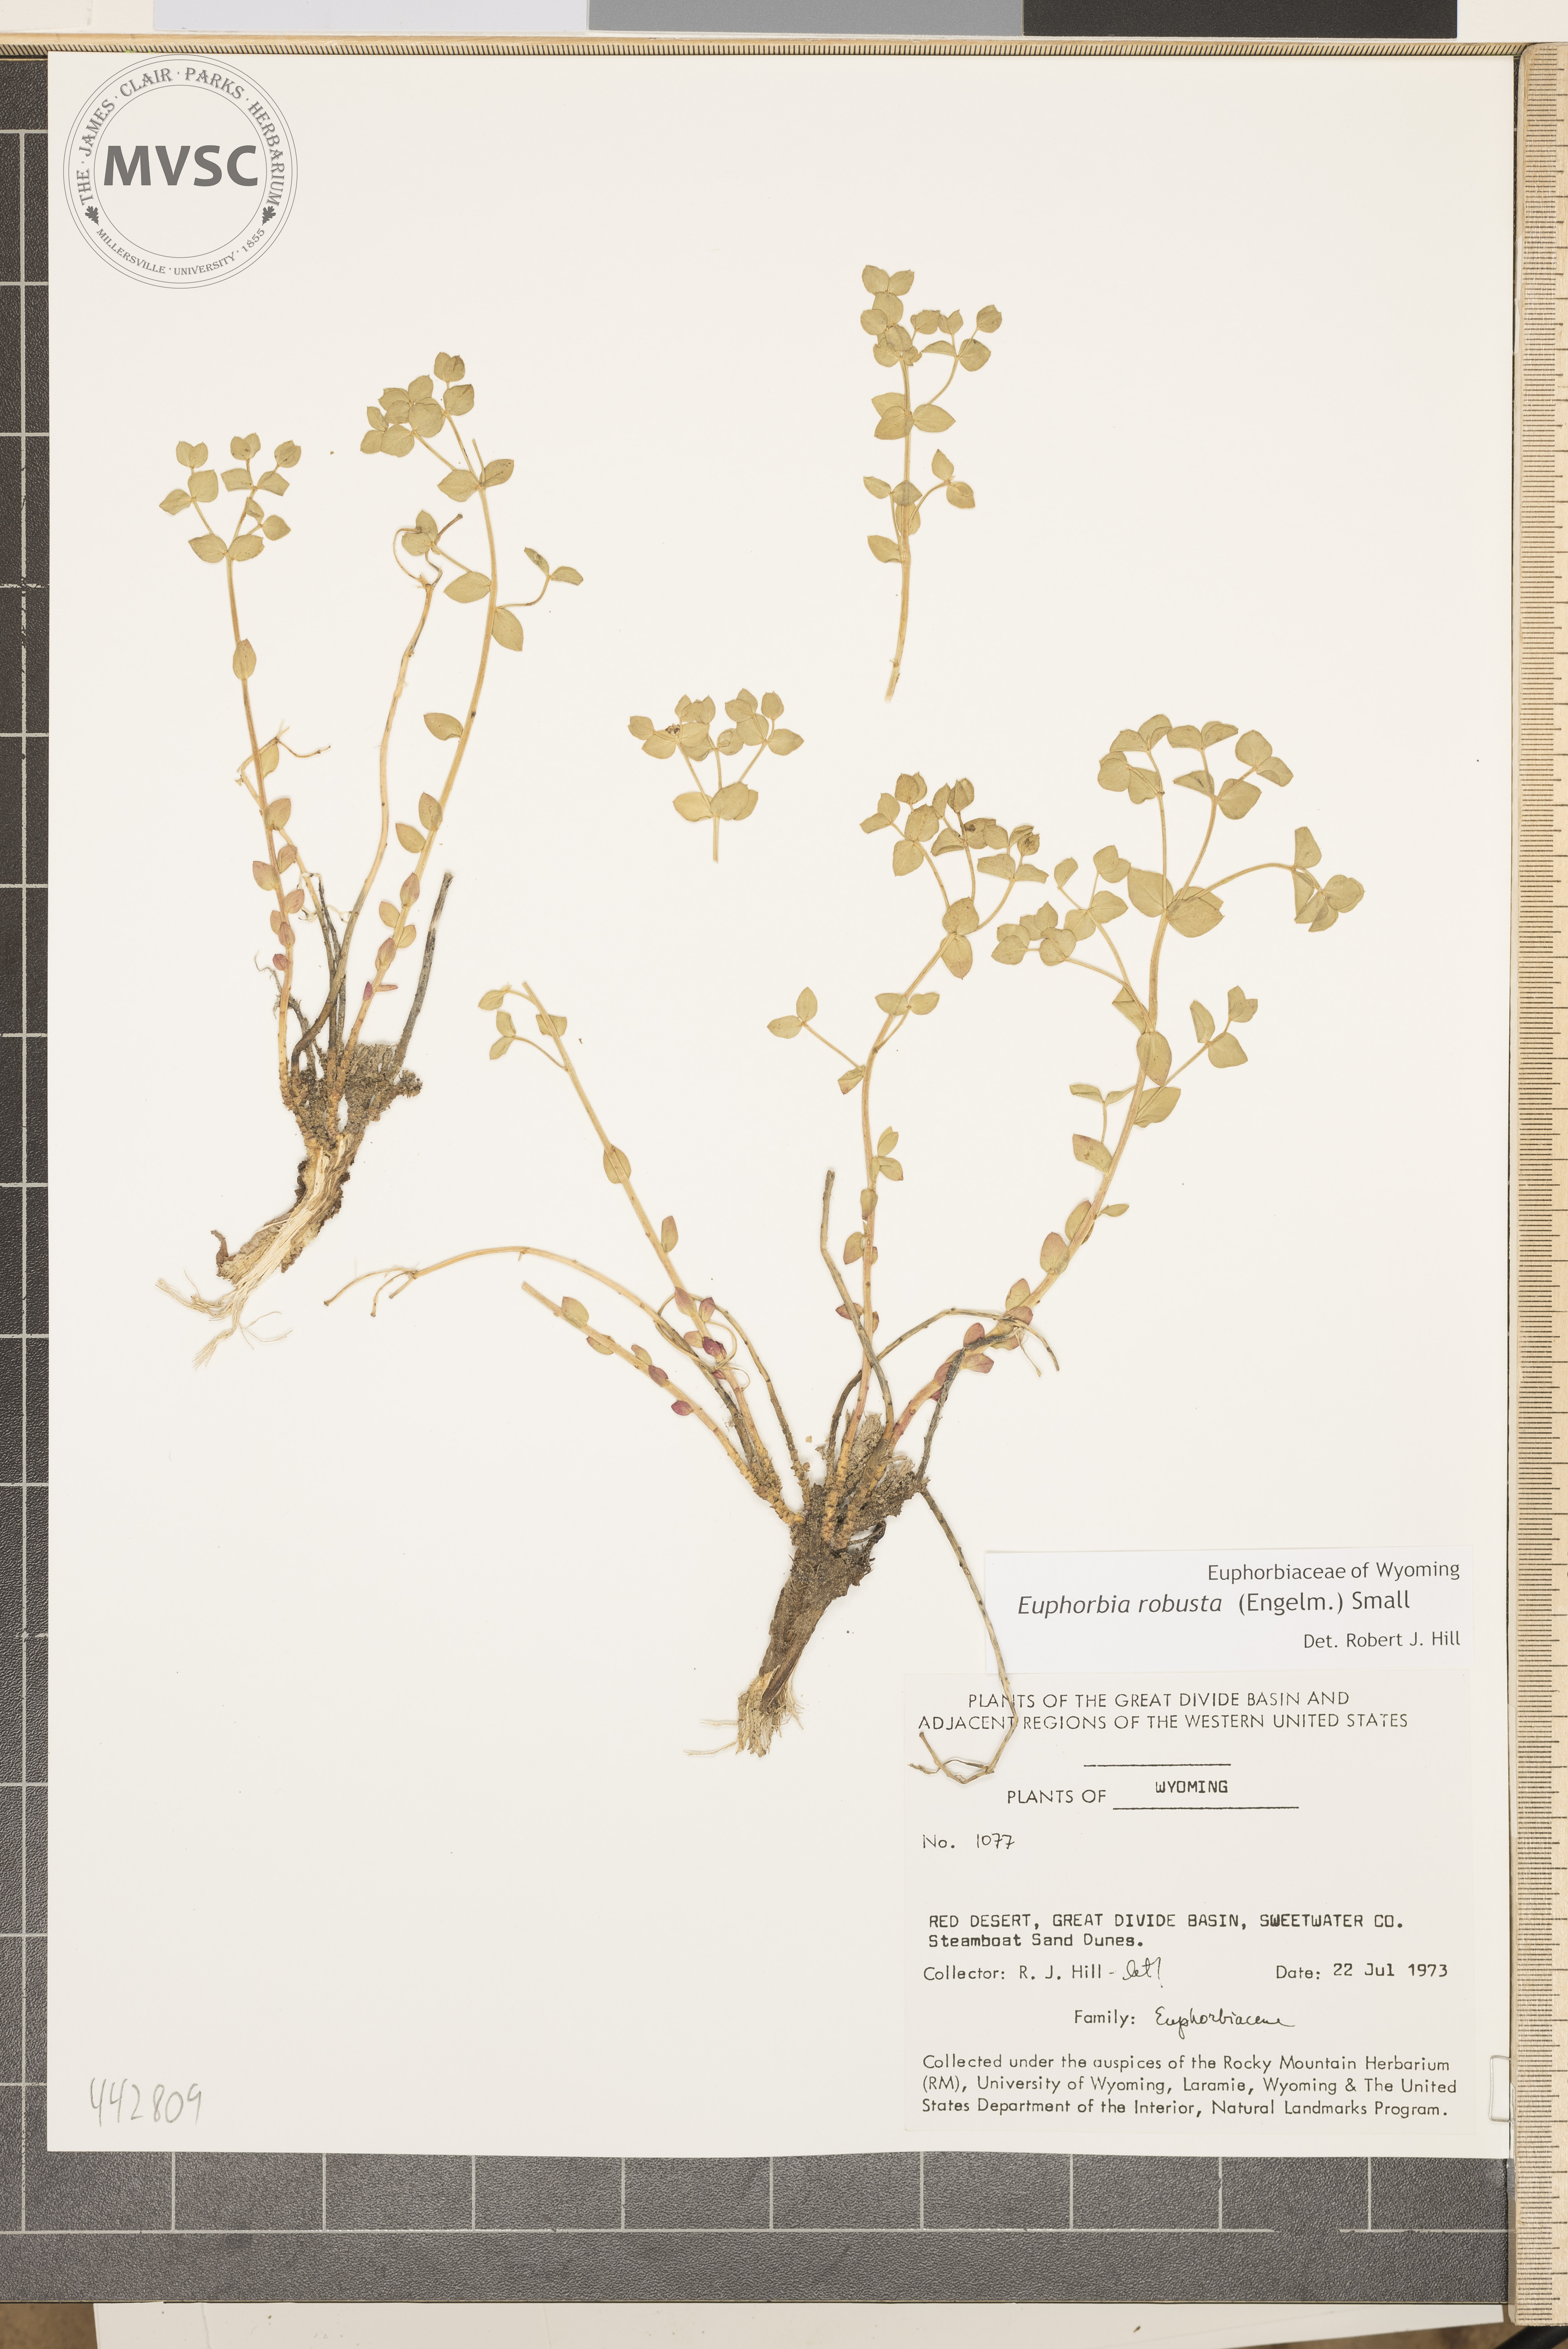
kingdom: Plantae
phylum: Tracheophyta
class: Magnoliopsida
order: Malpighiales
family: Euphorbiaceae
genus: Euphorbia
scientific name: Euphorbia brachycera
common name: Shorthorn spurge
